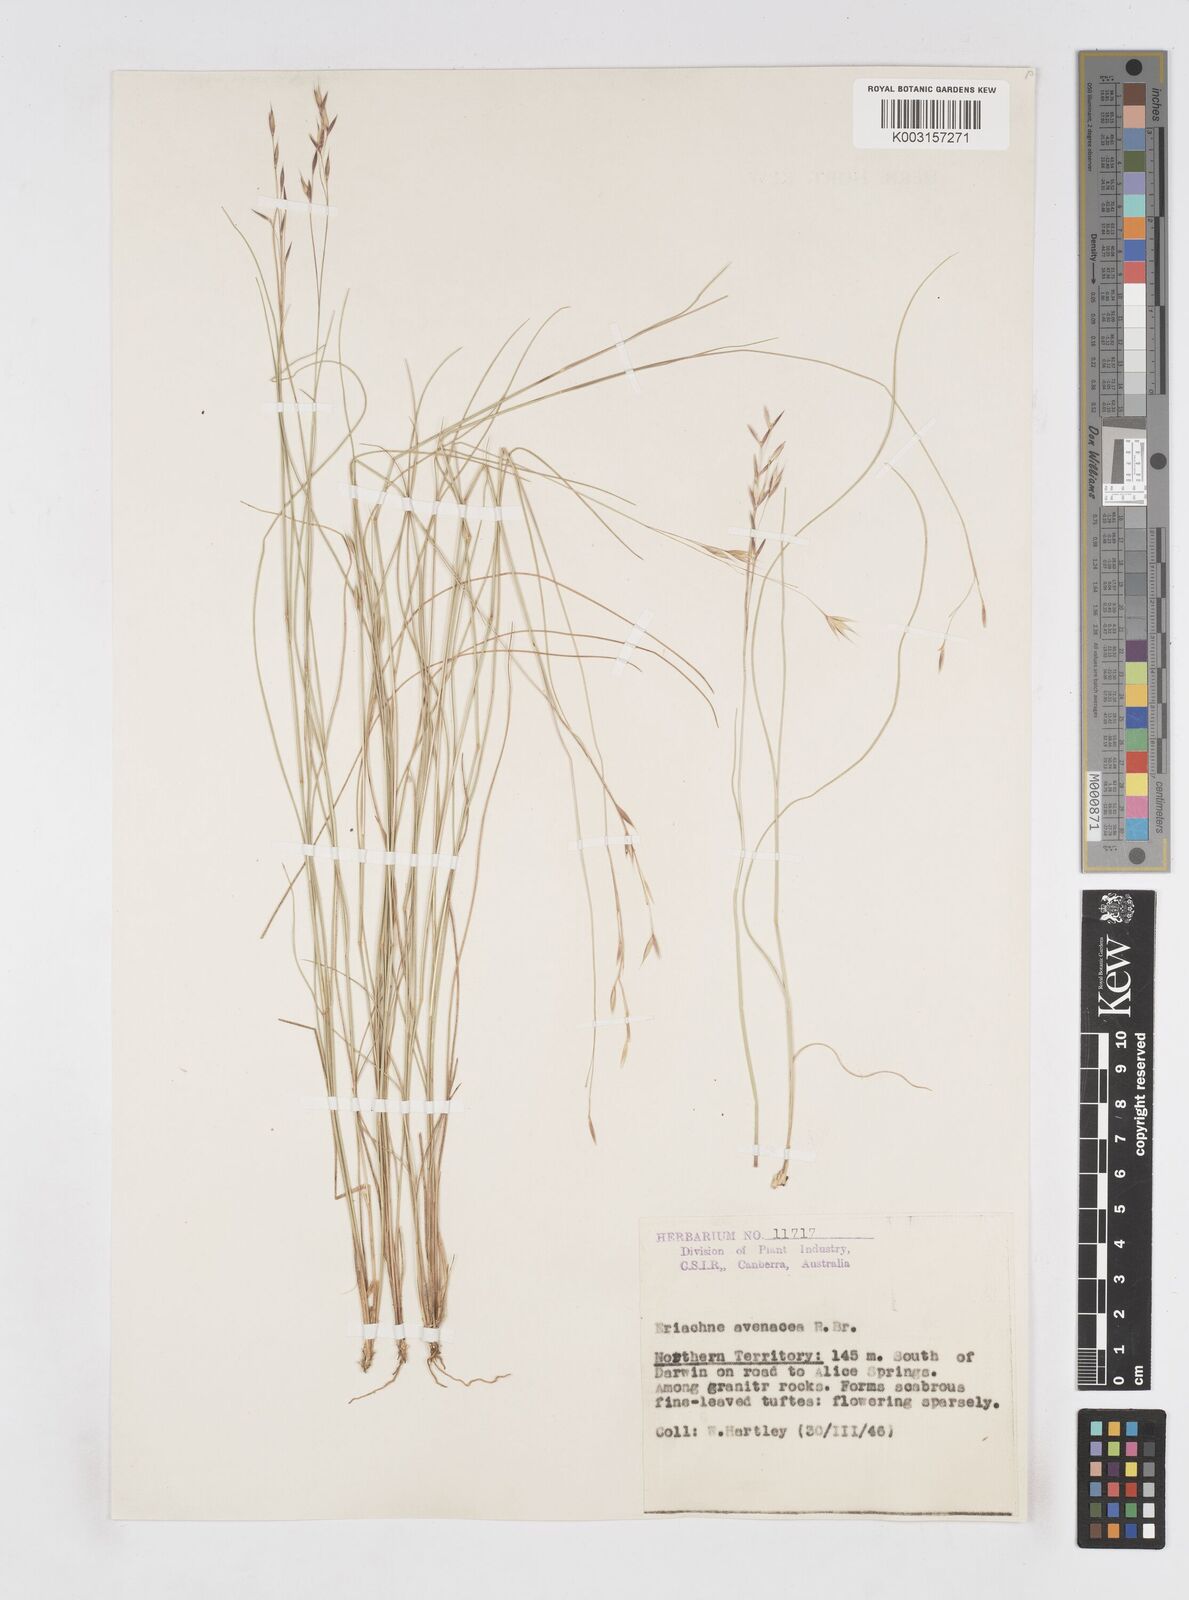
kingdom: Plantae
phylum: Tracheophyta
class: Liliopsida
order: Poales
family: Poaceae
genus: Eriachne
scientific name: Eriachne avenacea
